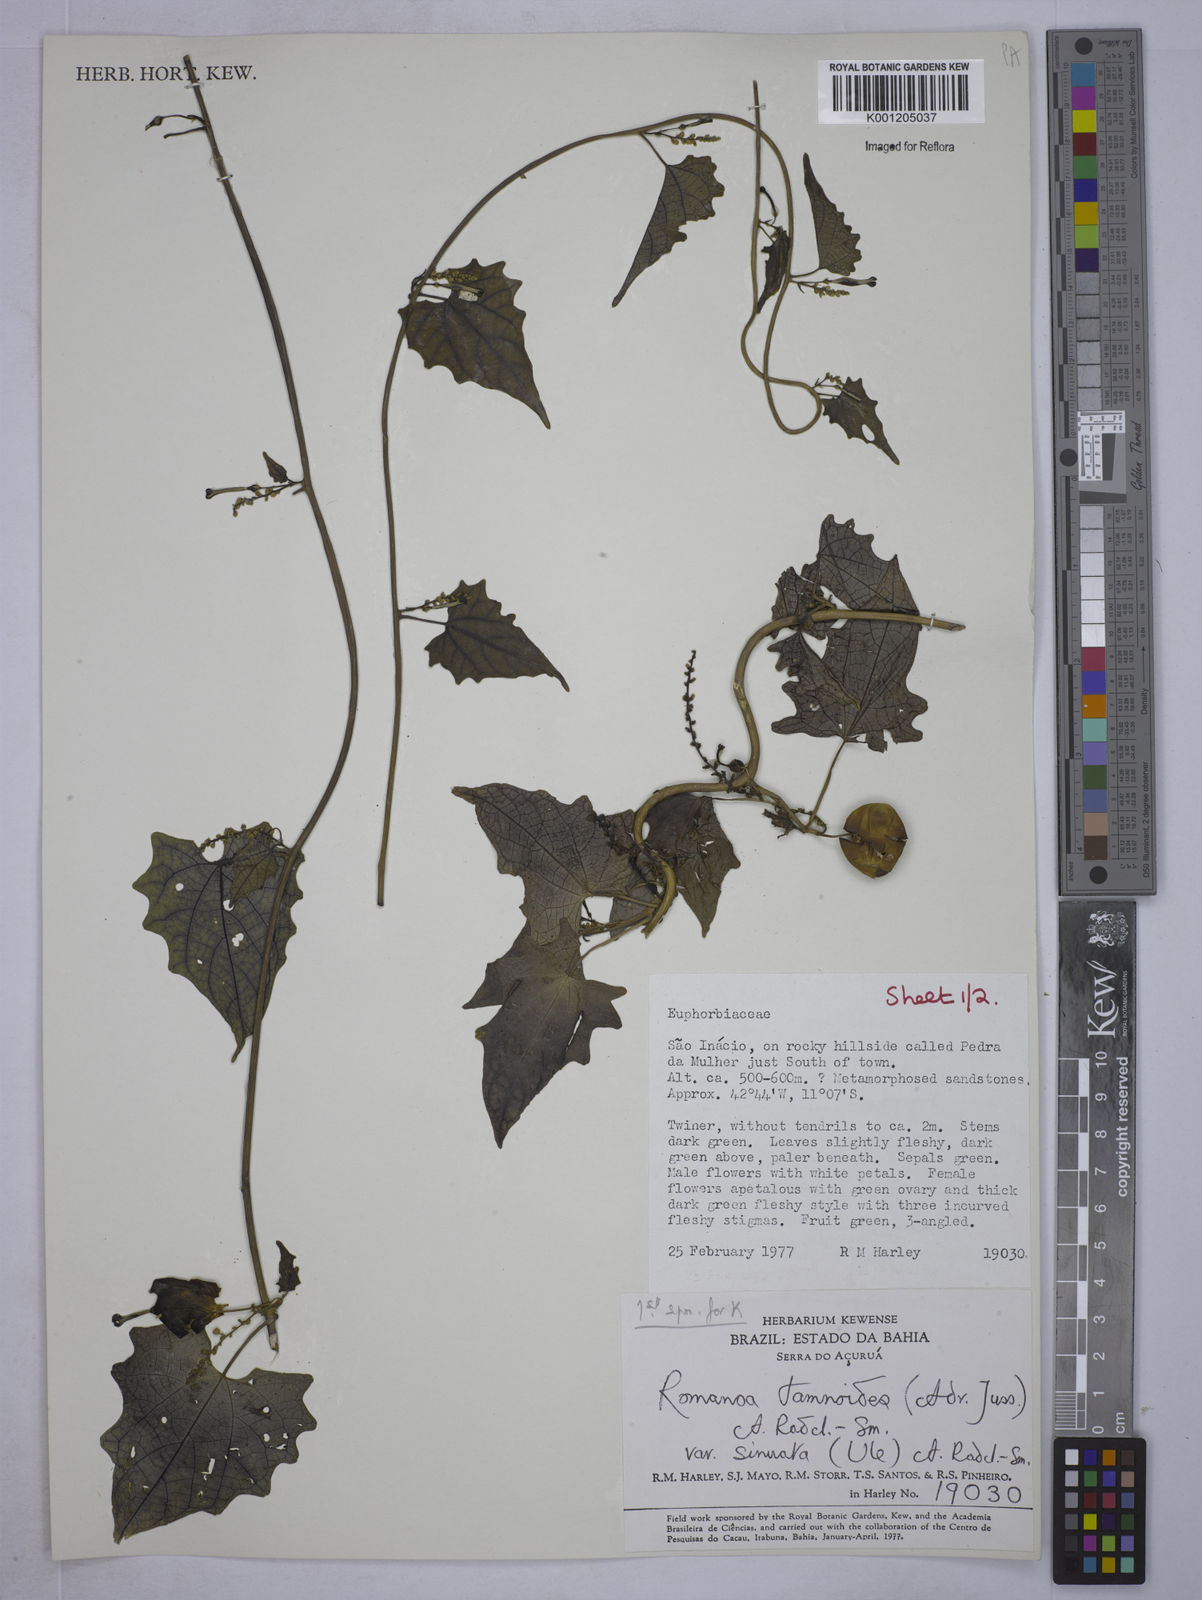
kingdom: Plantae
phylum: Tracheophyta
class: Magnoliopsida
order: Malpighiales
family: Euphorbiaceae
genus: Romanoa
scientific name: Romanoa tamnoides
